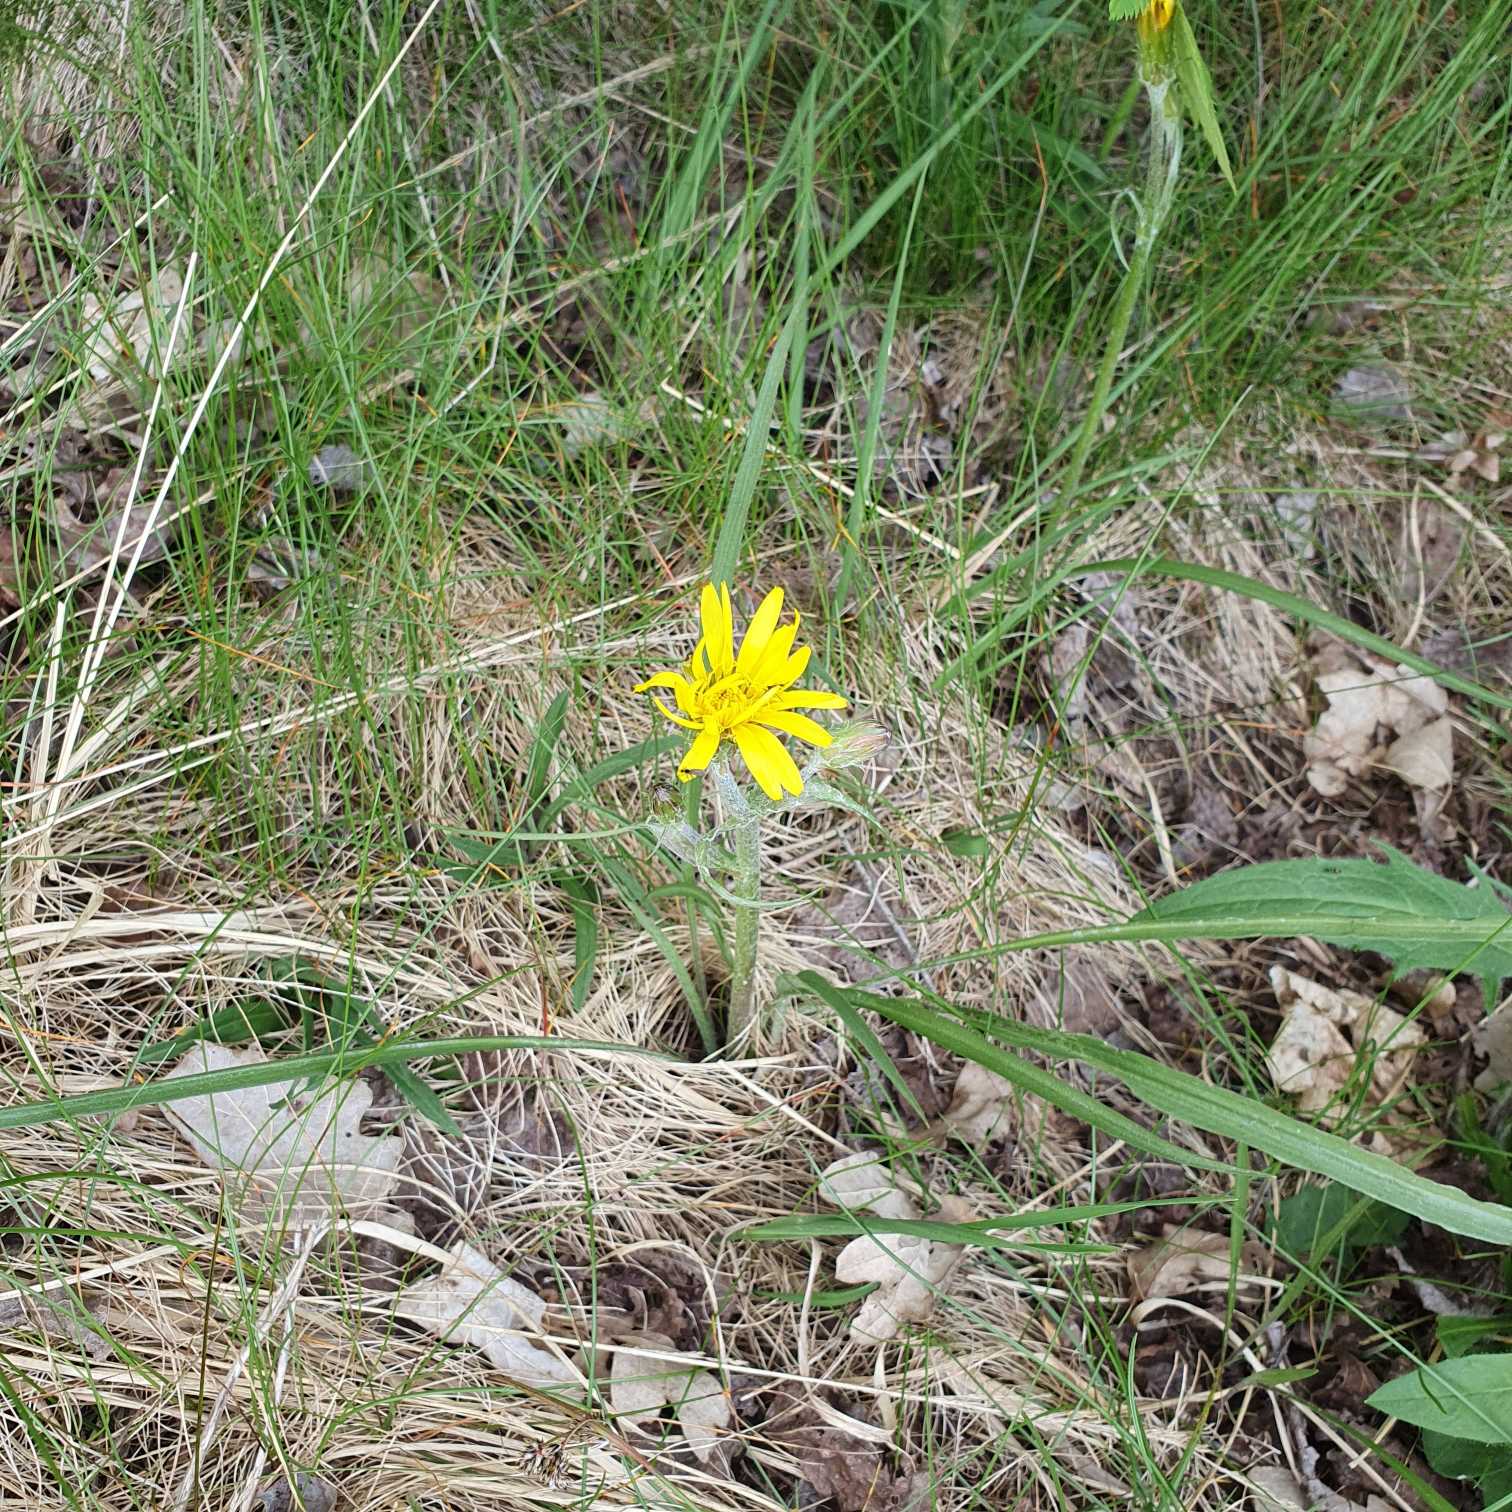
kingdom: Plantae
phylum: Tracheophyta
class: Magnoliopsida
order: Asterales
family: Asteraceae
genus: Scorzonera
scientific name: Scorzonera humilis
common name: Lav skorsoner
